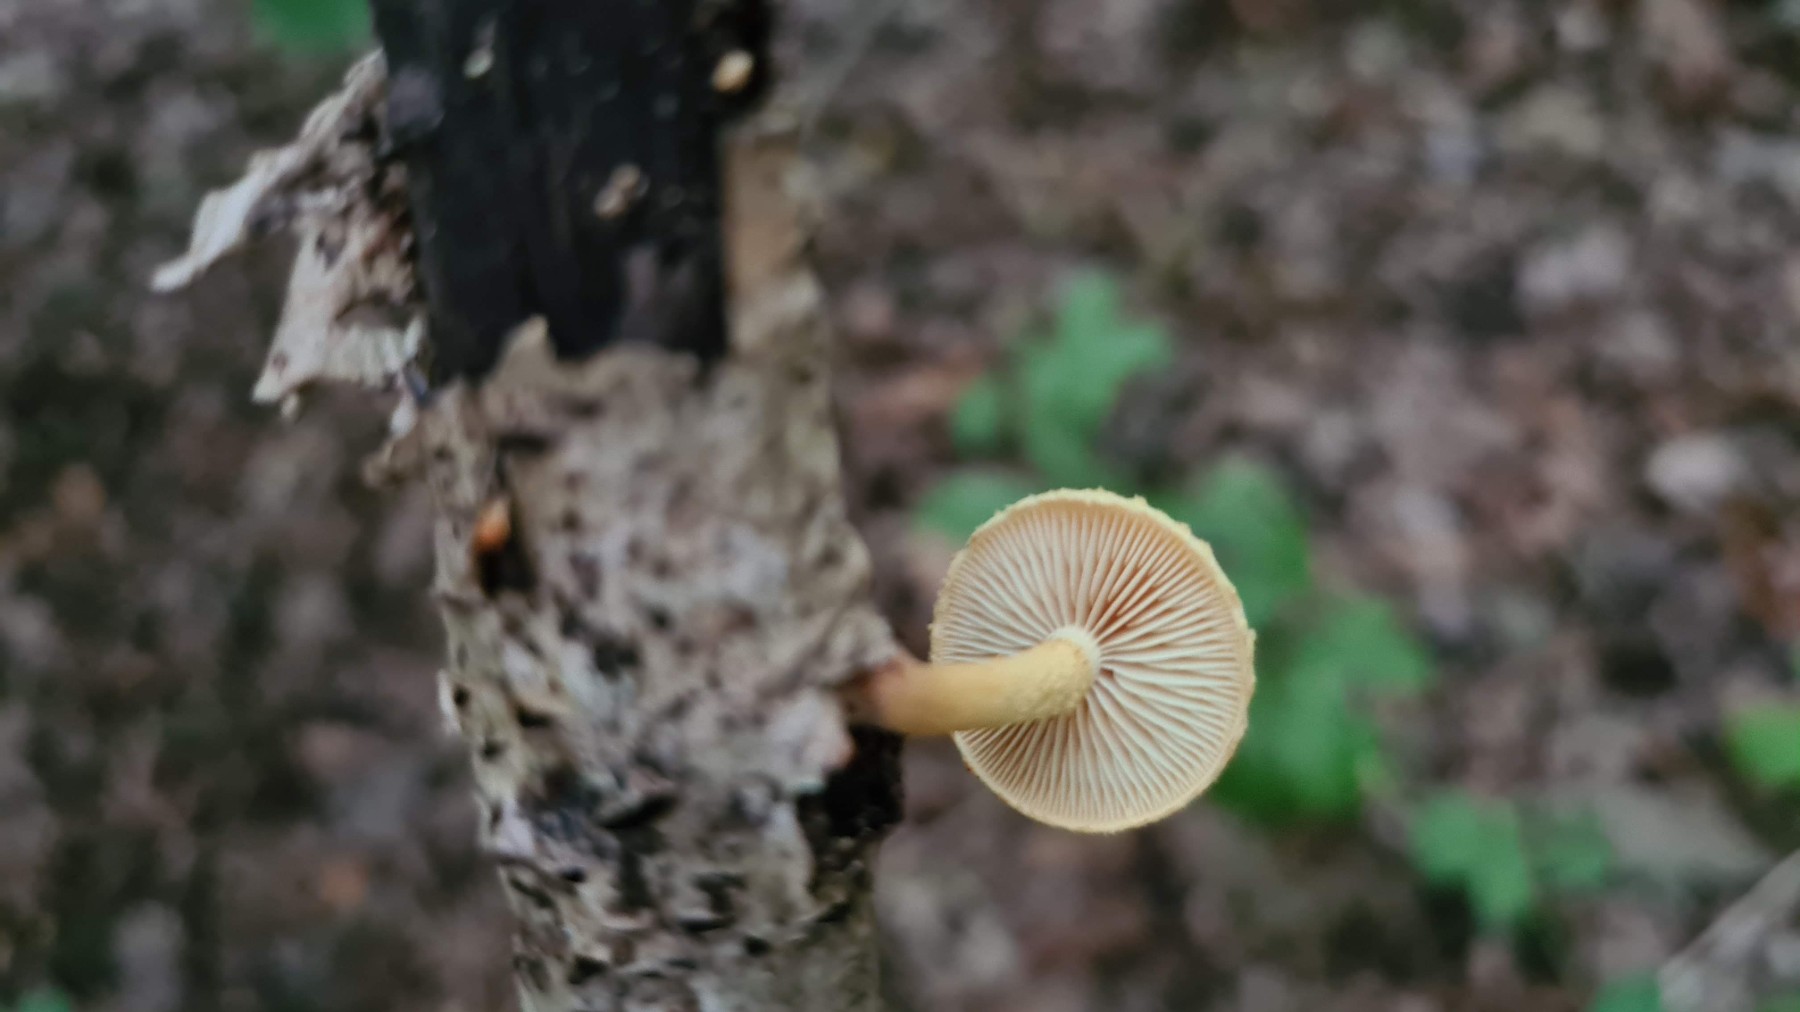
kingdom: Fungi
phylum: Basidiomycota
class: Agaricomycetes
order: Agaricales
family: Strophariaceae
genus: Pholiota
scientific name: Pholiota tuberculosa
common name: finskællet skælhat
